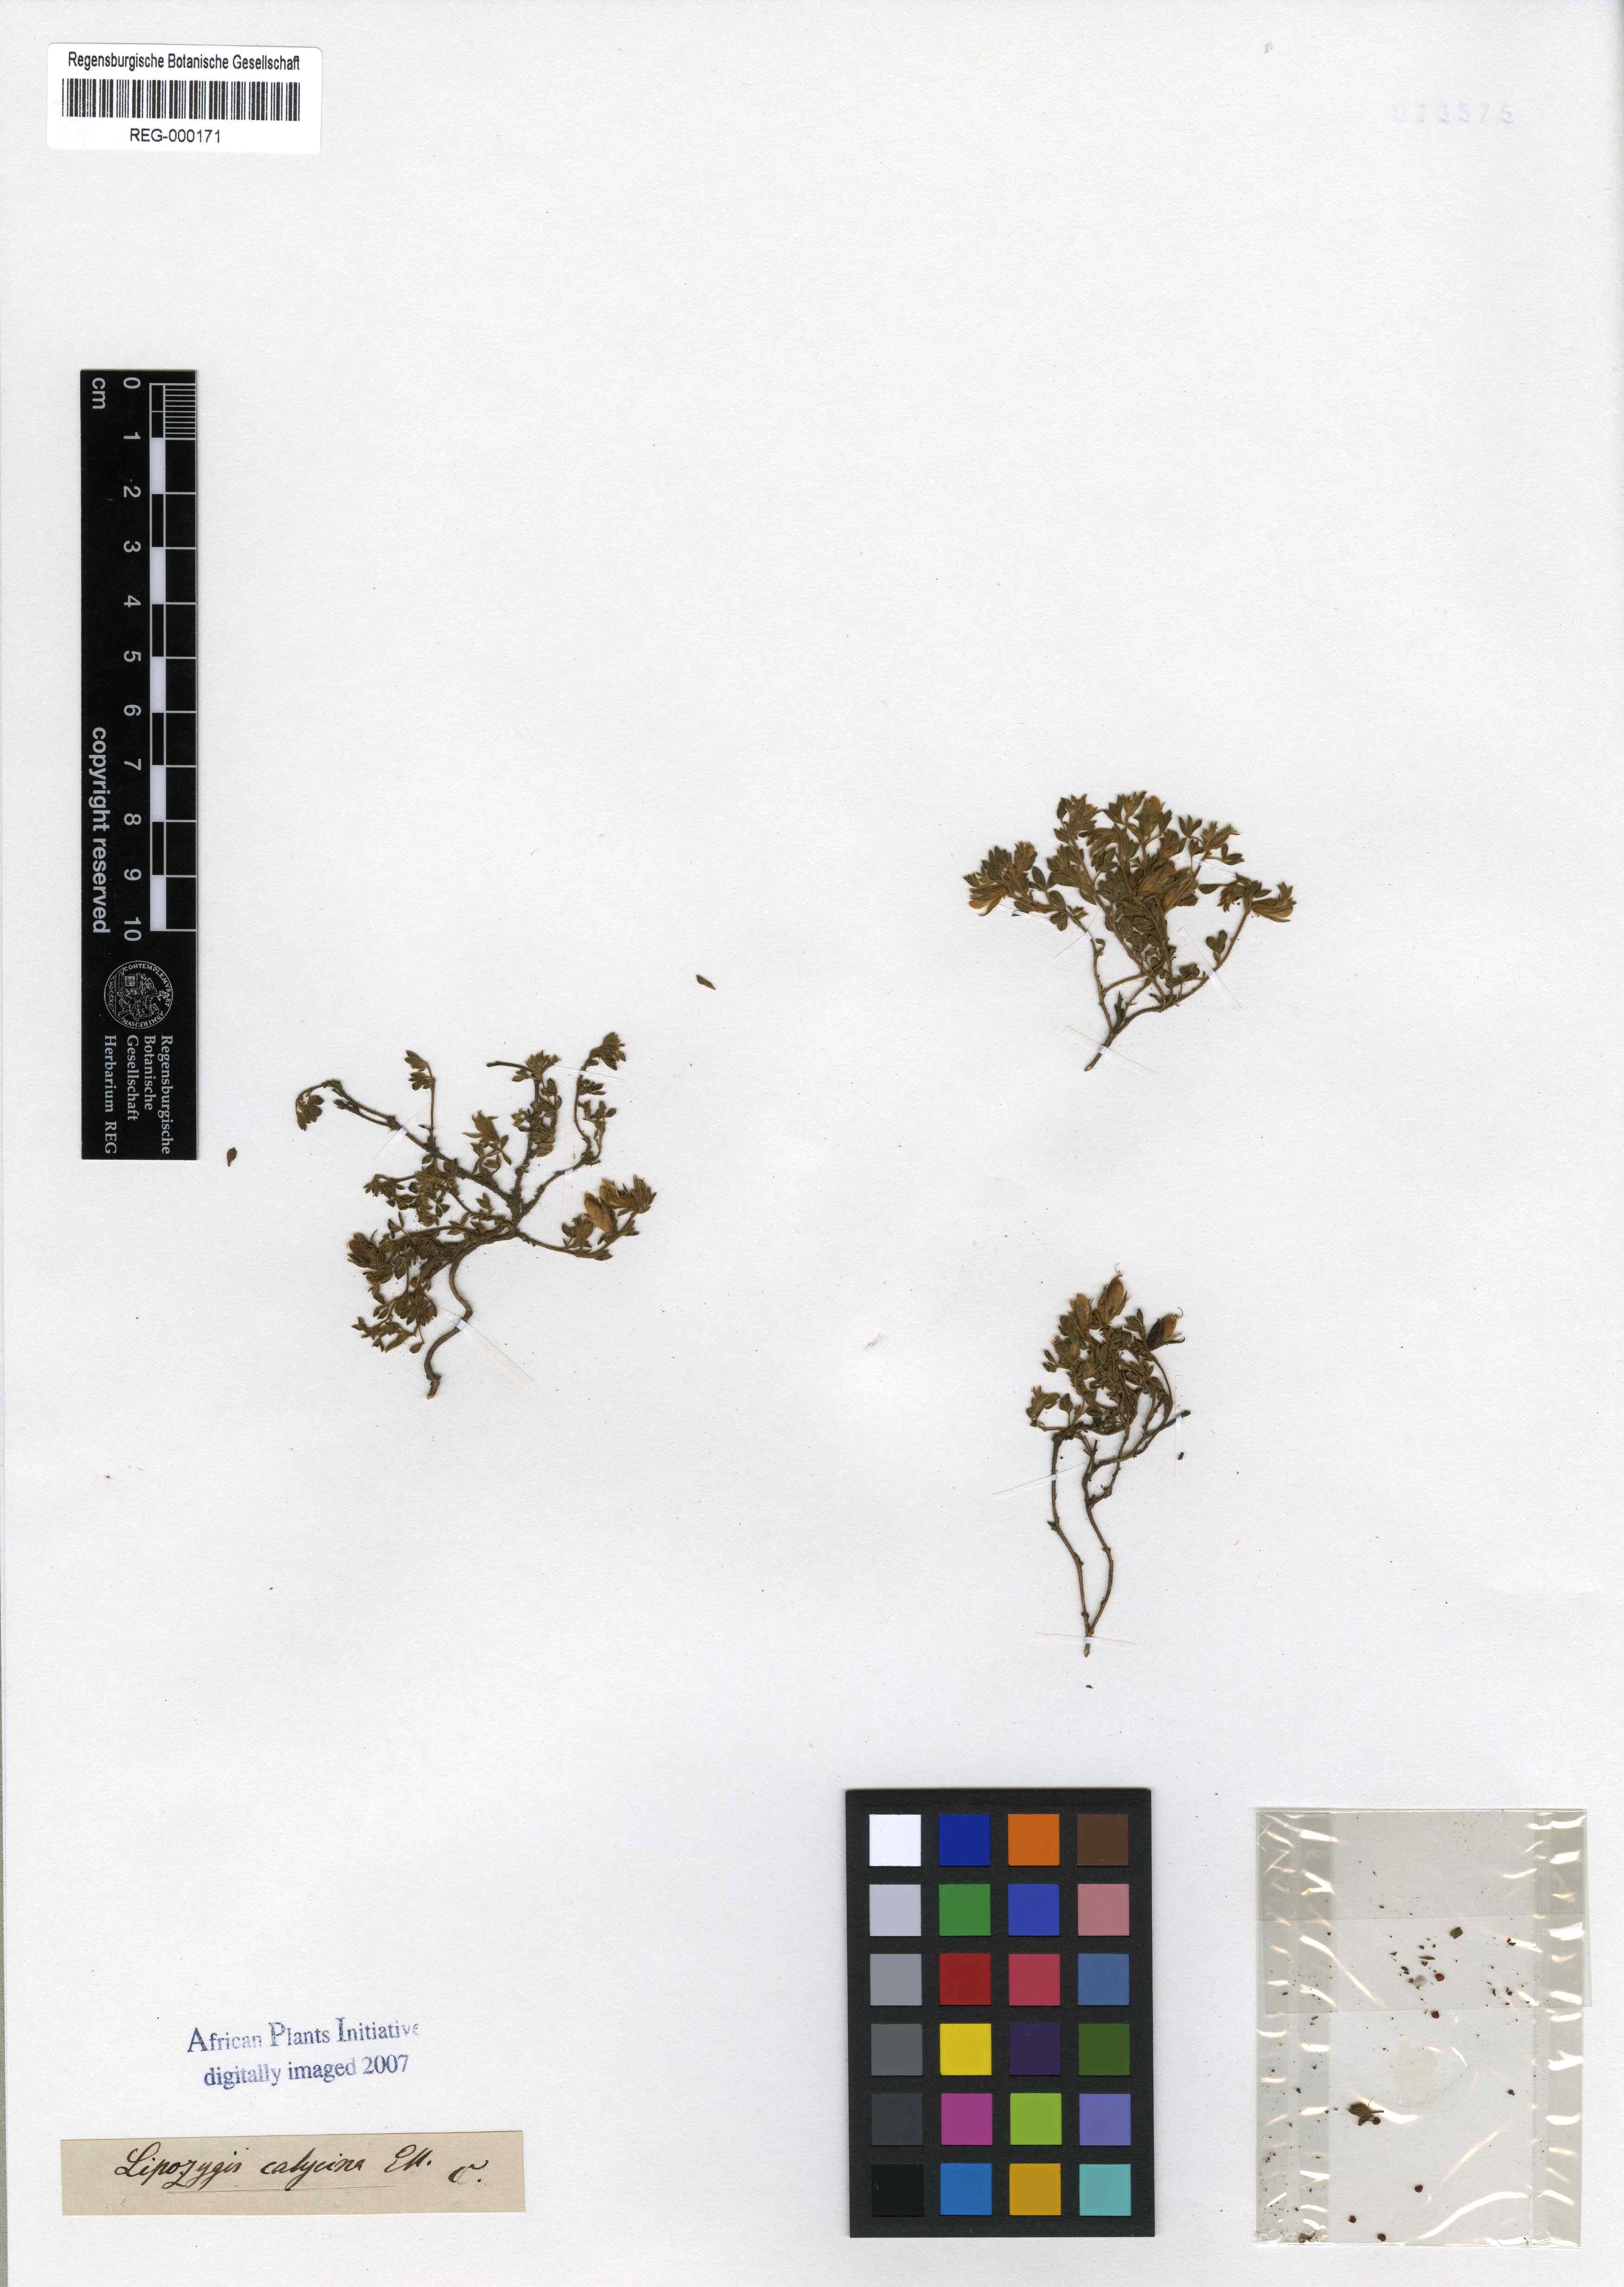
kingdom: Plantae
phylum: Tracheophyta
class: Magnoliopsida
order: Fabales
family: Fabaceae
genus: Leobordea
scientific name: Leobordea divaricata
